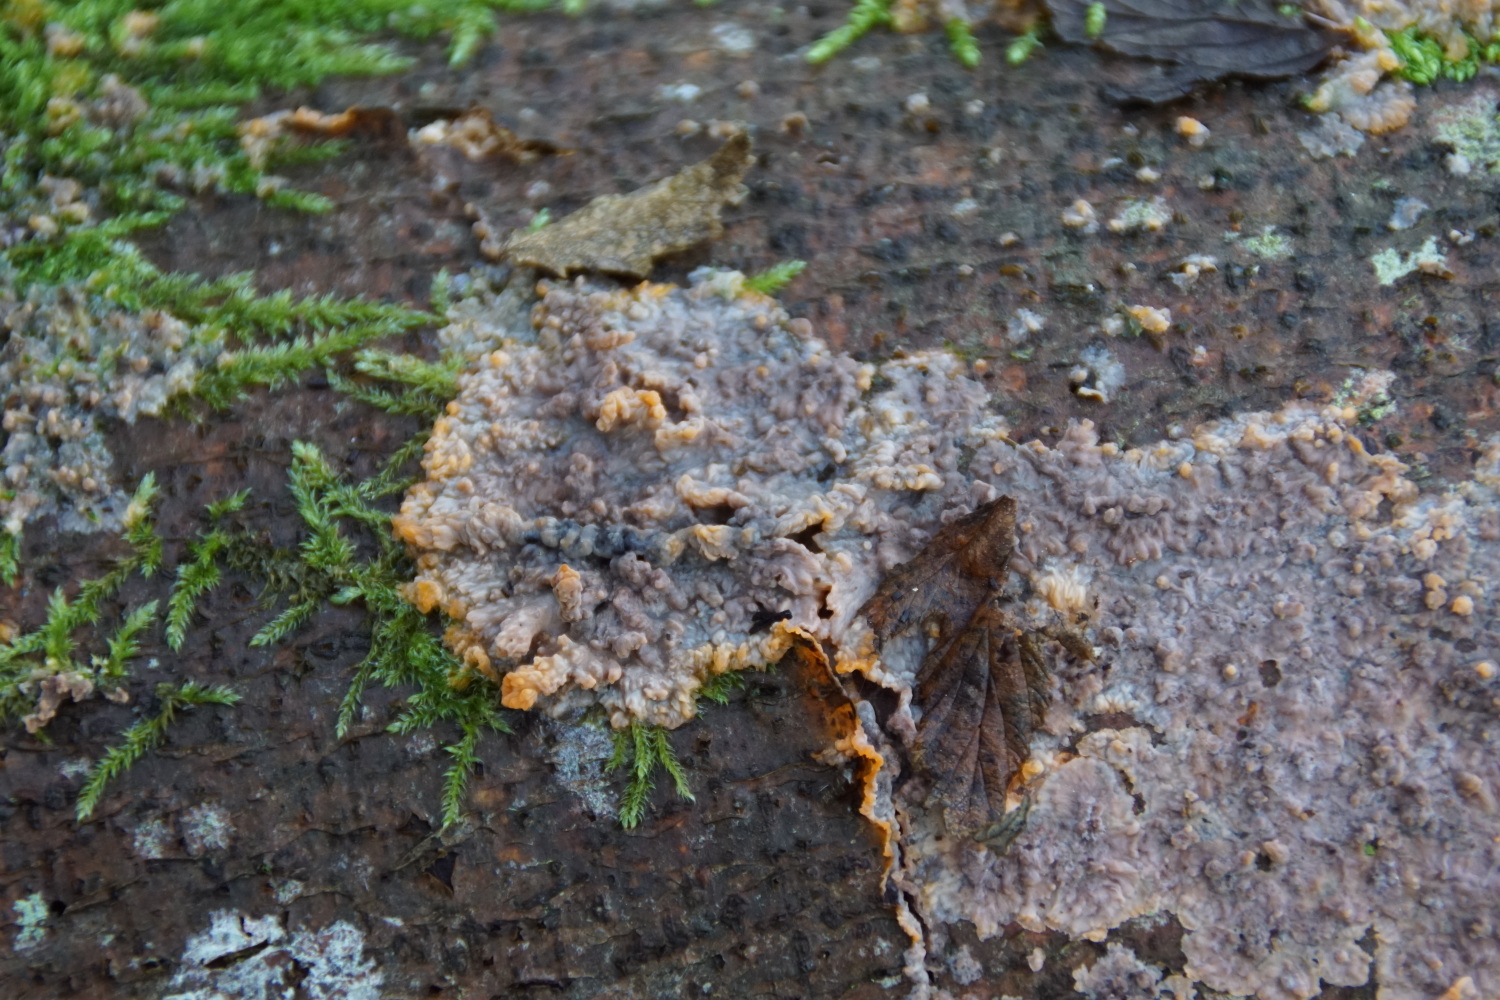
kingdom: Fungi
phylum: Basidiomycota
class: Agaricomycetes
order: Polyporales
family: Meruliaceae
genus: Phlebia
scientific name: Phlebia radiata
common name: stråle-åresvamp
